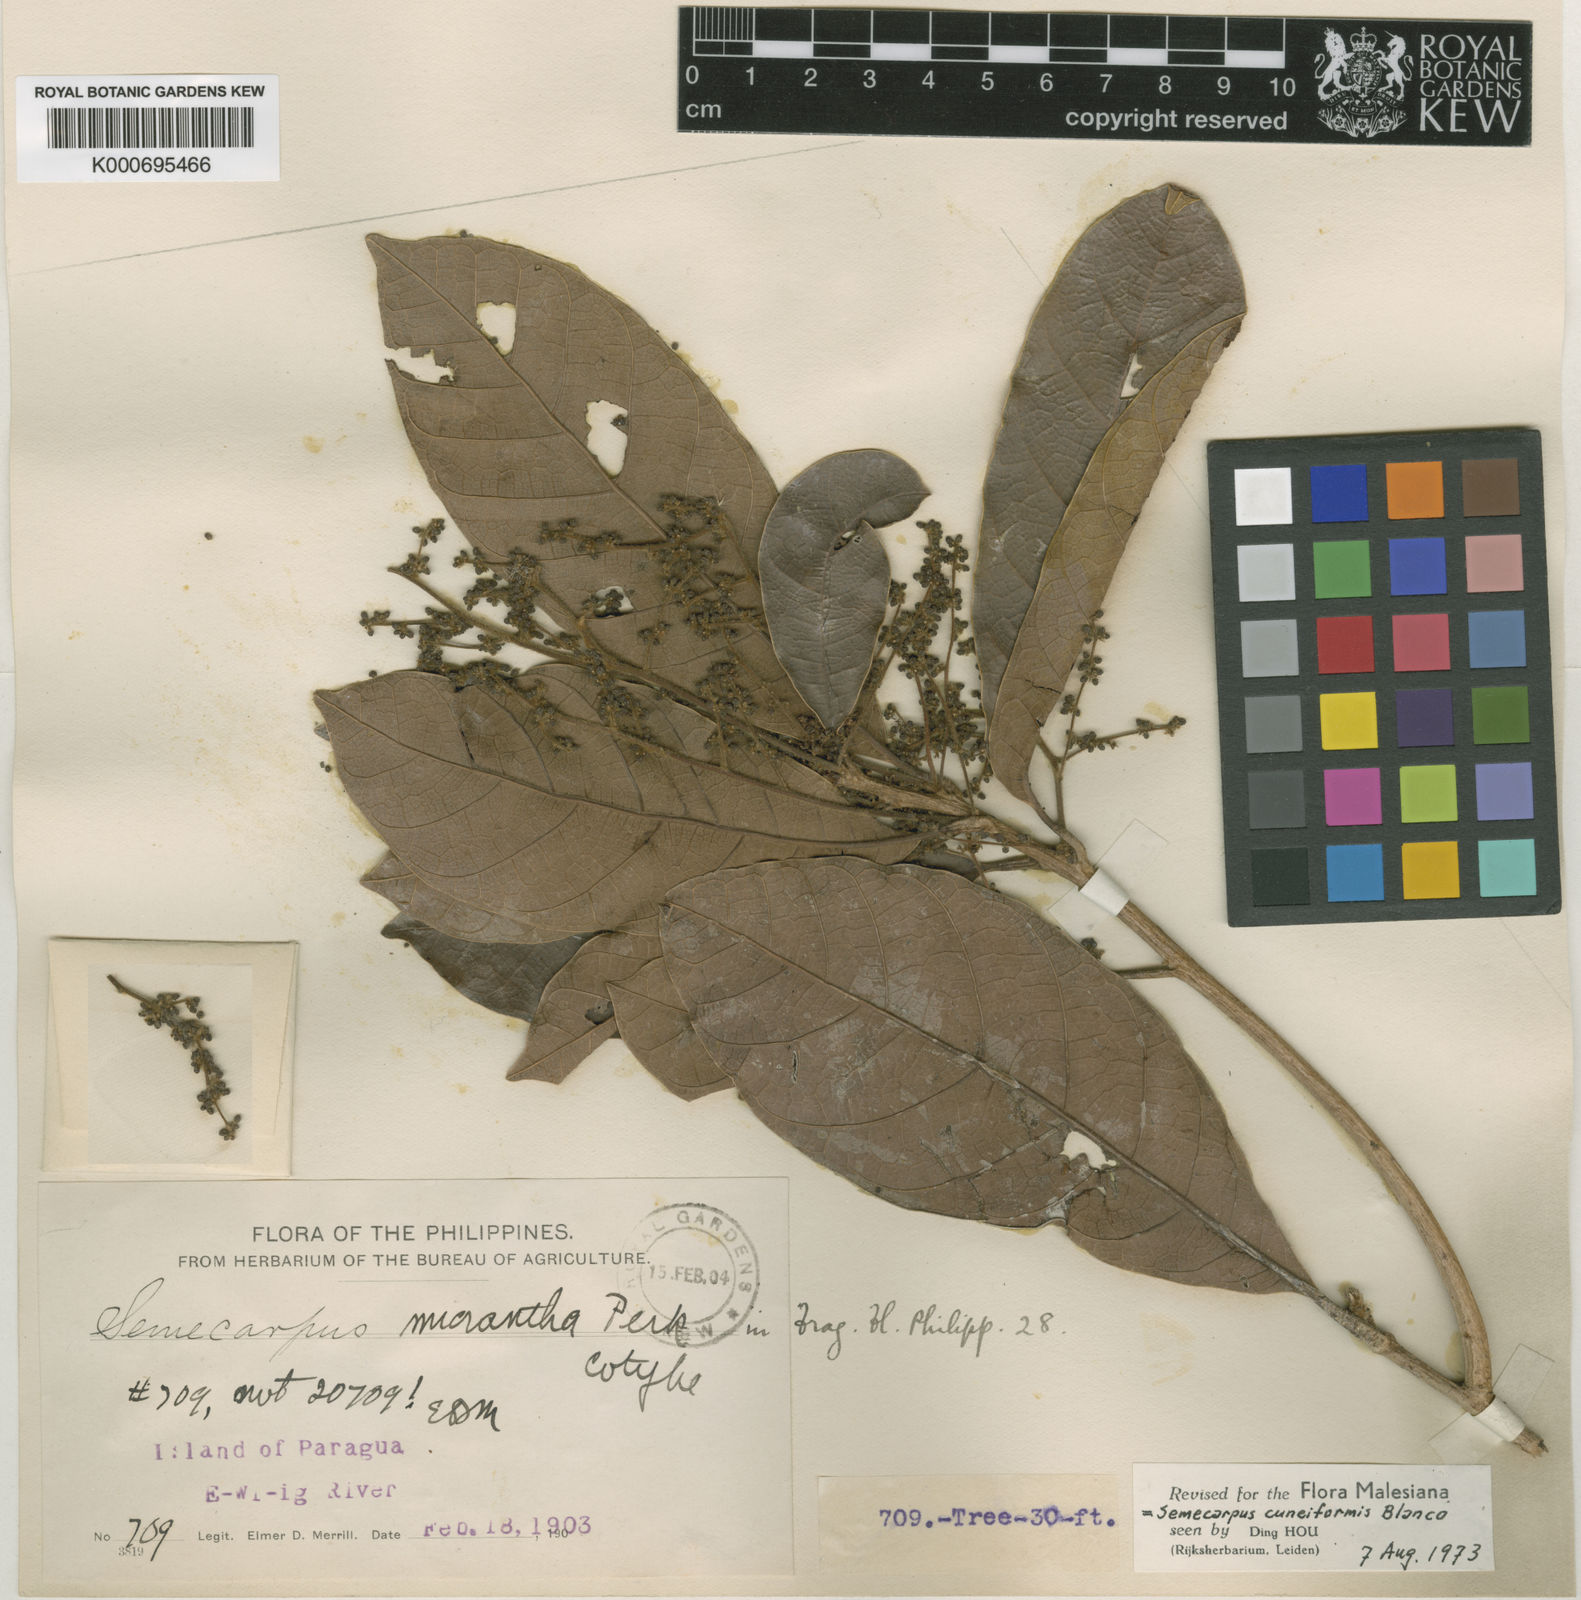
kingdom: Plantae
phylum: Tracheophyta
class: Magnoliopsida
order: Sapindales
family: Anacardiaceae
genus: Semecarpus
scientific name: Semecarpus cuneiformis
